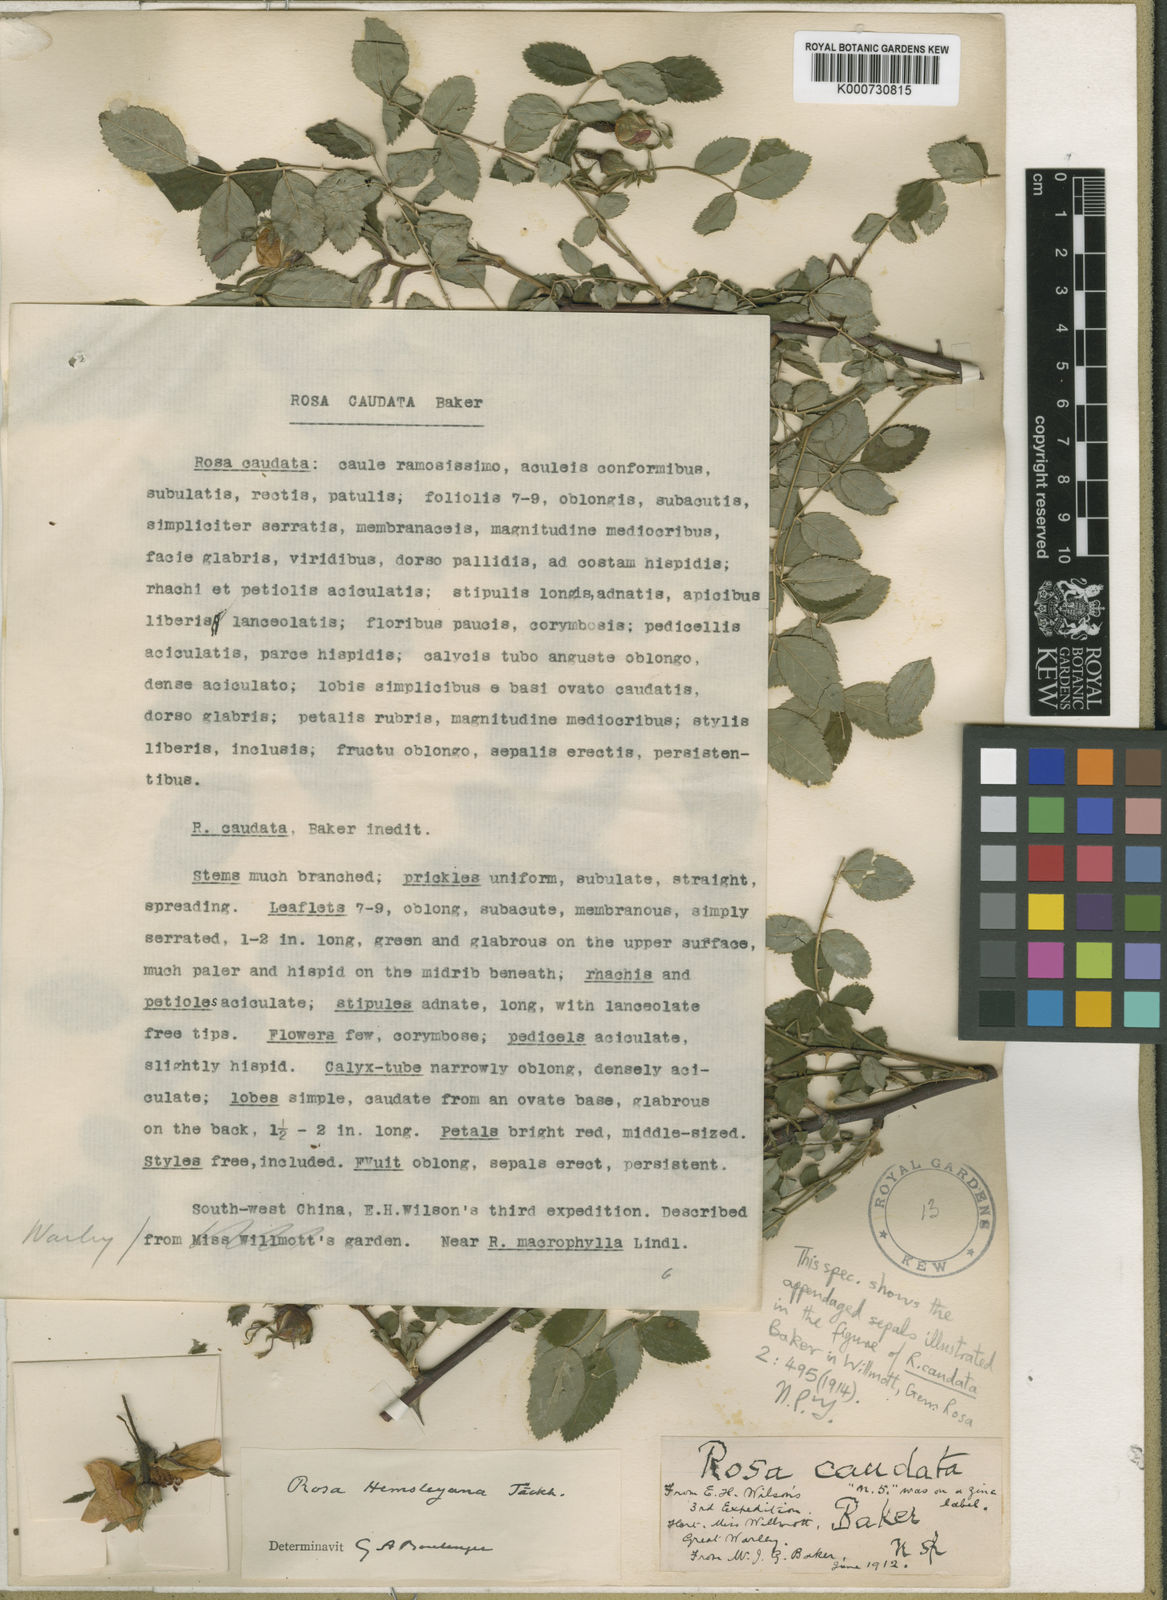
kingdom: Plantae
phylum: Tracheophyta
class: Magnoliopsida
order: Rosales
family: Rosaceae
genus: Rosa
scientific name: Rosa caudata
